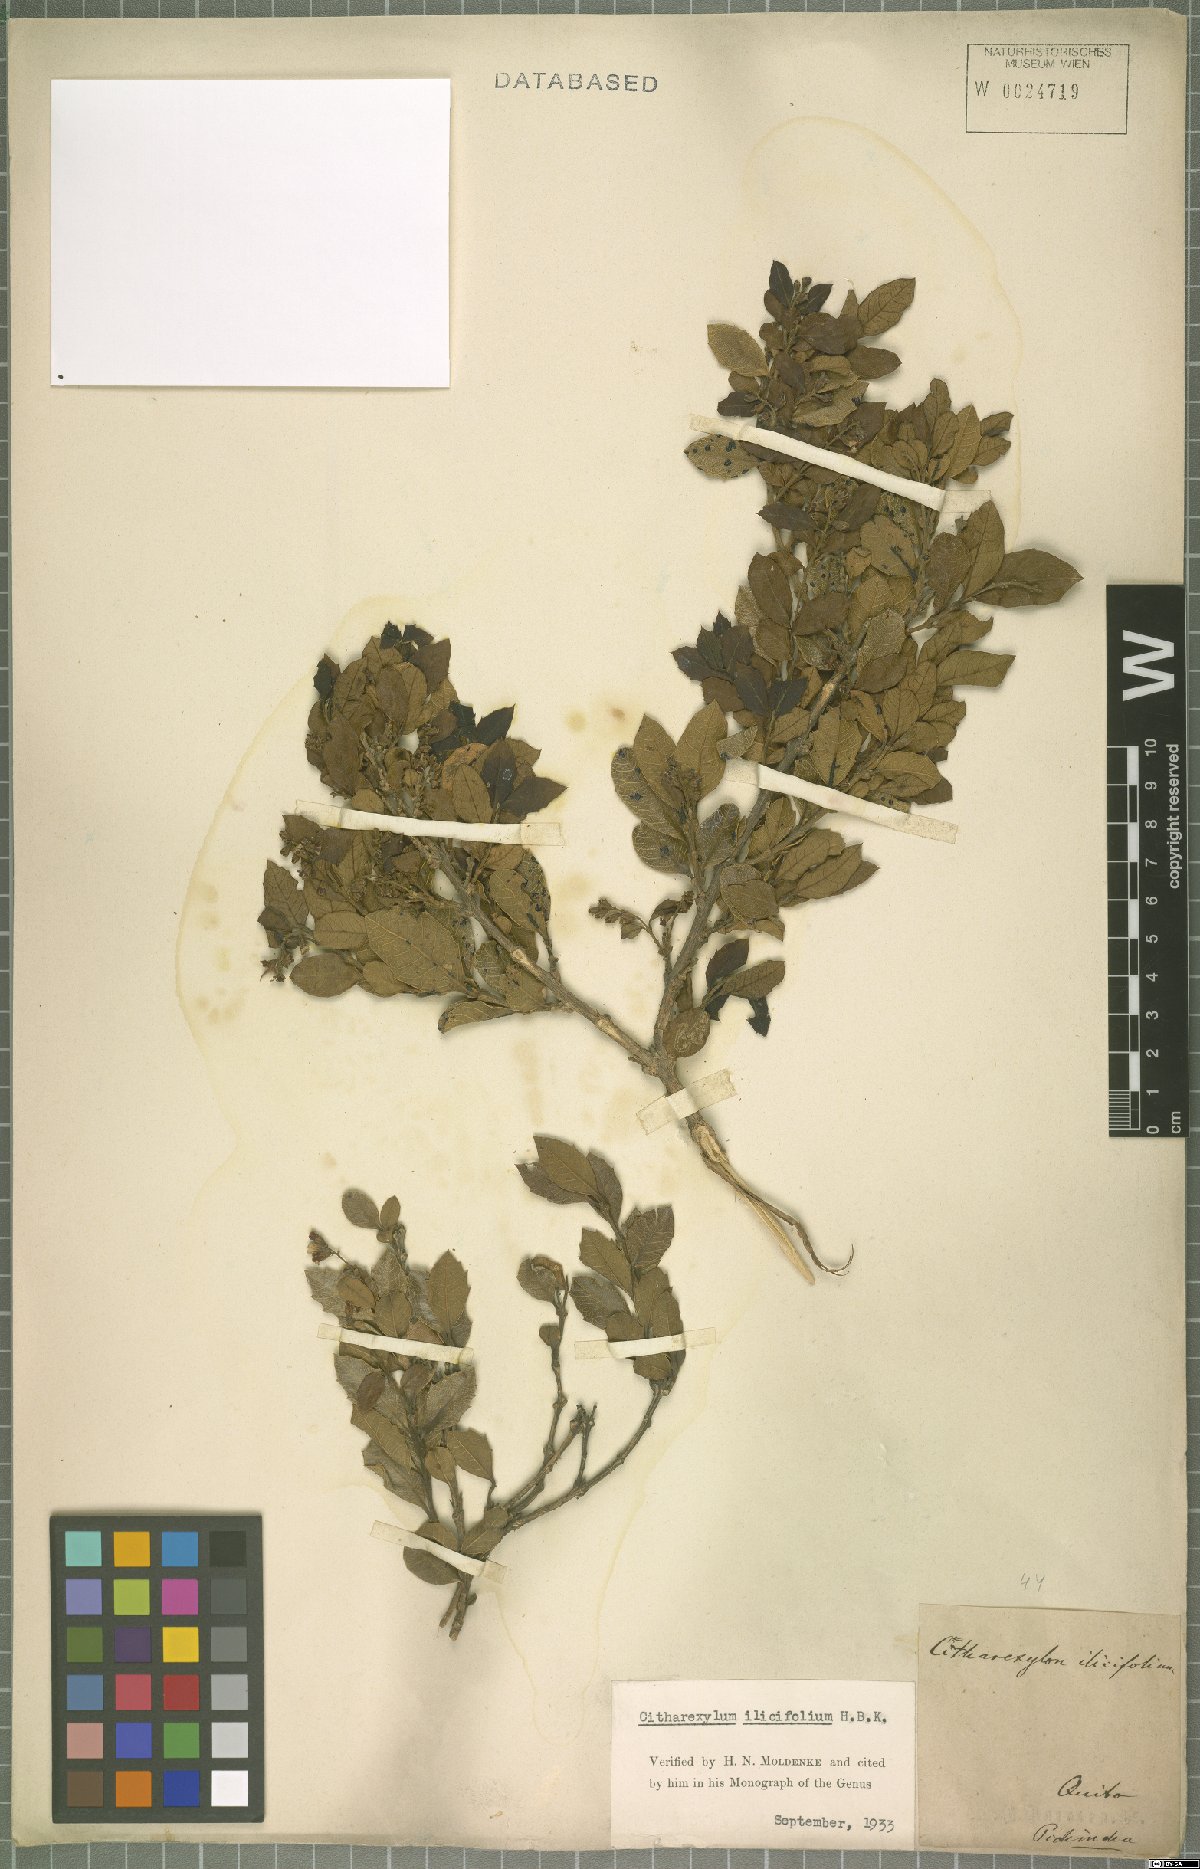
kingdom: Plantae
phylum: Tracheophyta
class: Magnoliopsida
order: Lamiales
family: Verbenaceae
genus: Citharexylum
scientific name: Citharexylum ilicifolium
